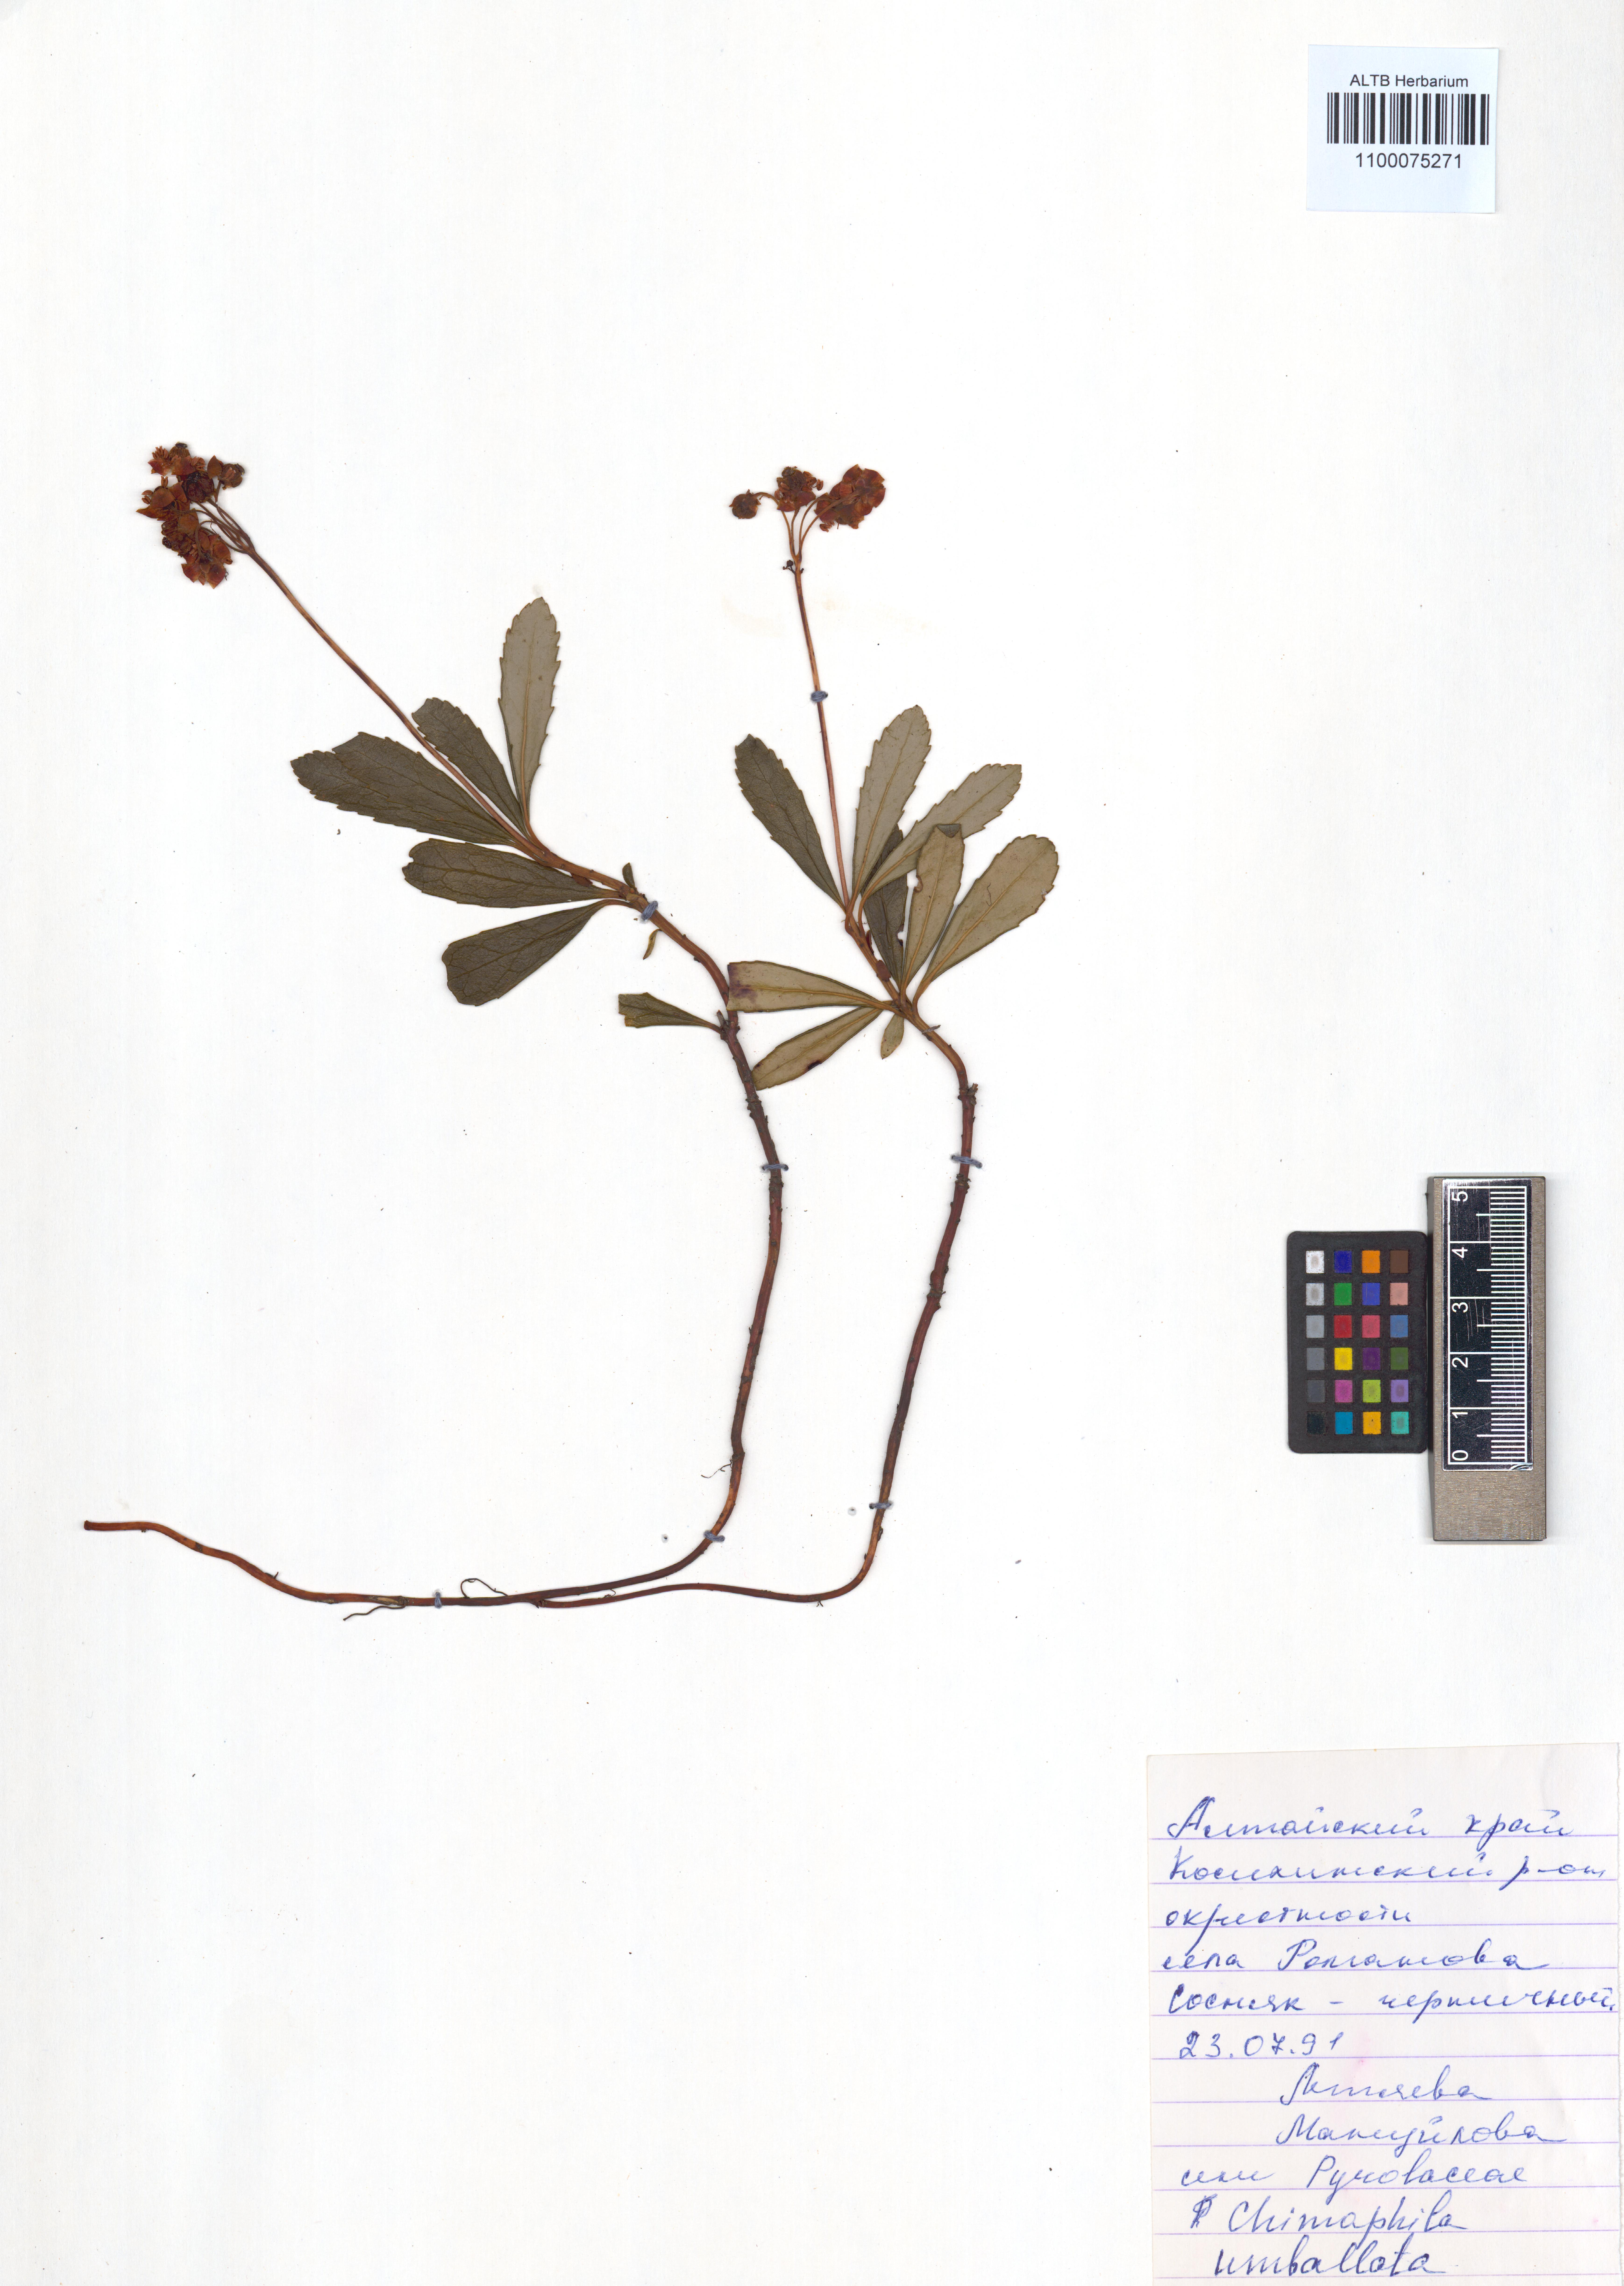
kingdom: Plantae
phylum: Tracheophyta
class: Magnoliopsida
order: Ericales
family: Ericaceae
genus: Chimaphila
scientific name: Chimaphila umbellata
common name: Pipsissewa
